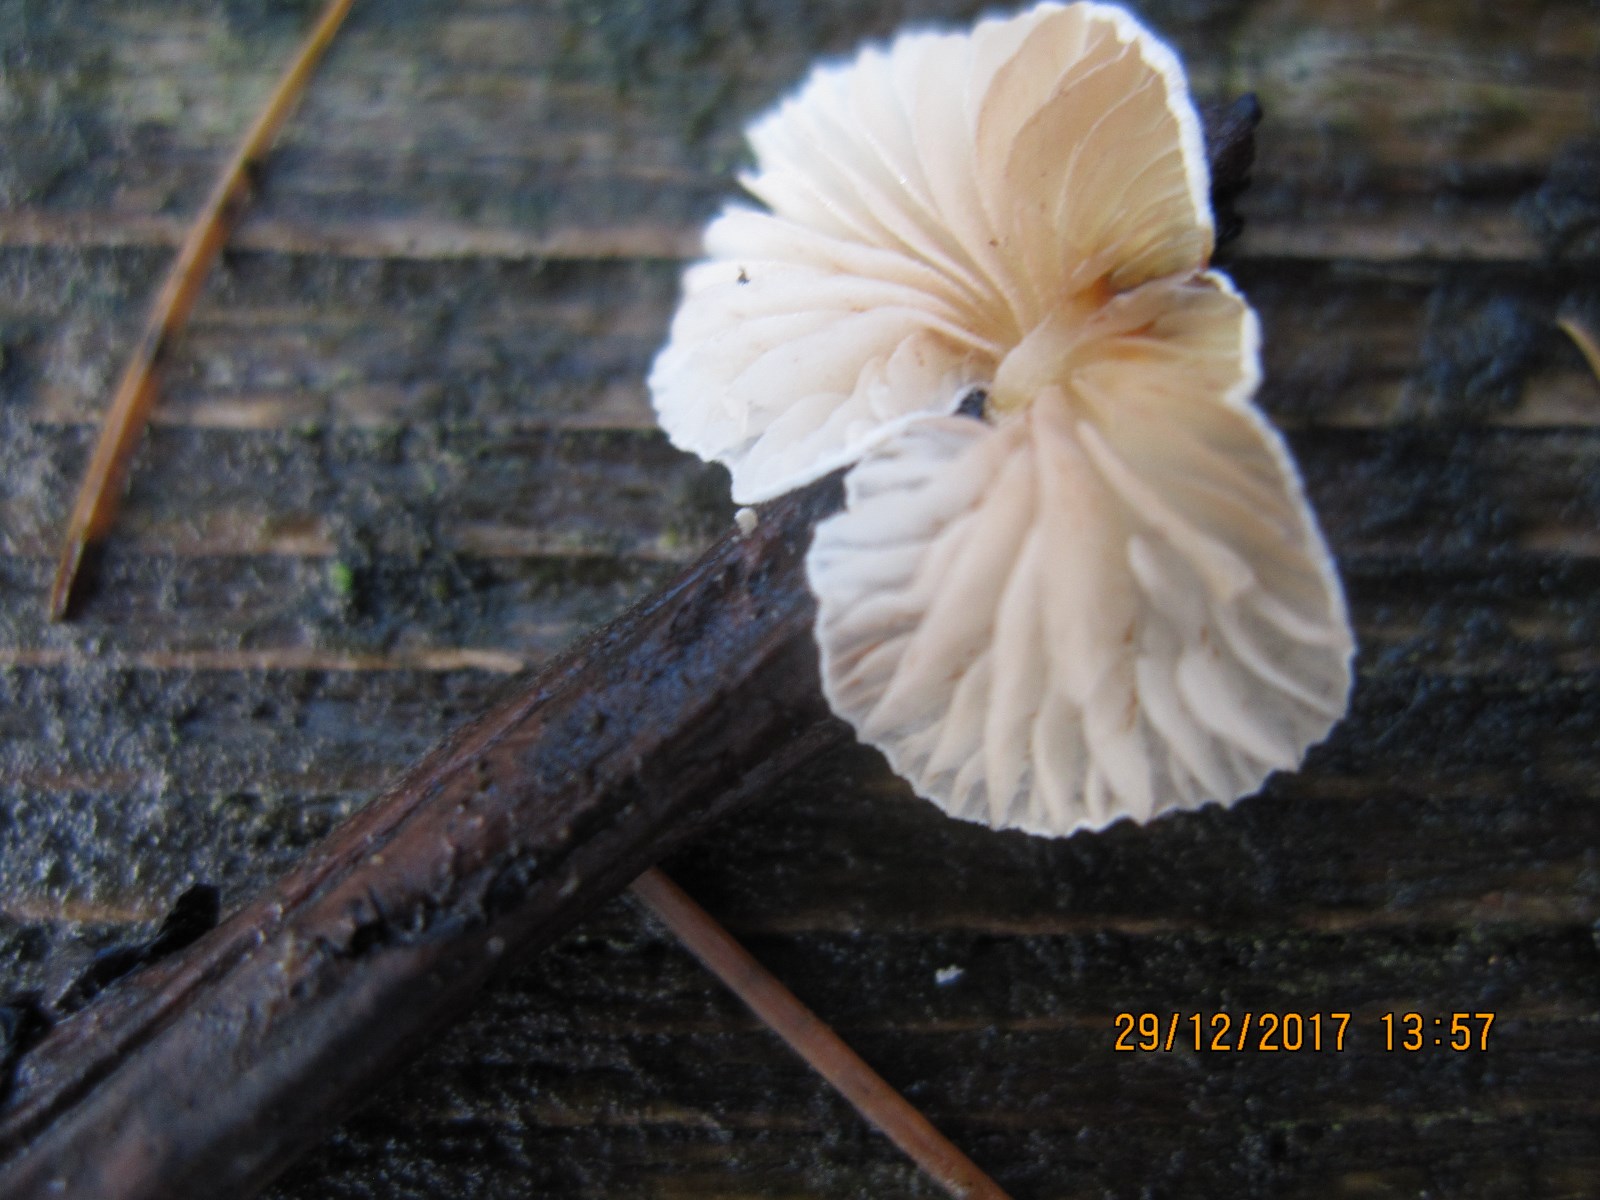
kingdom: Fungi
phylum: Basidiomycota
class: Agaricomycetes
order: Agaricales
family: Crepidotaceae
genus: Crepidotus
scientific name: Crepidotus luteolus
